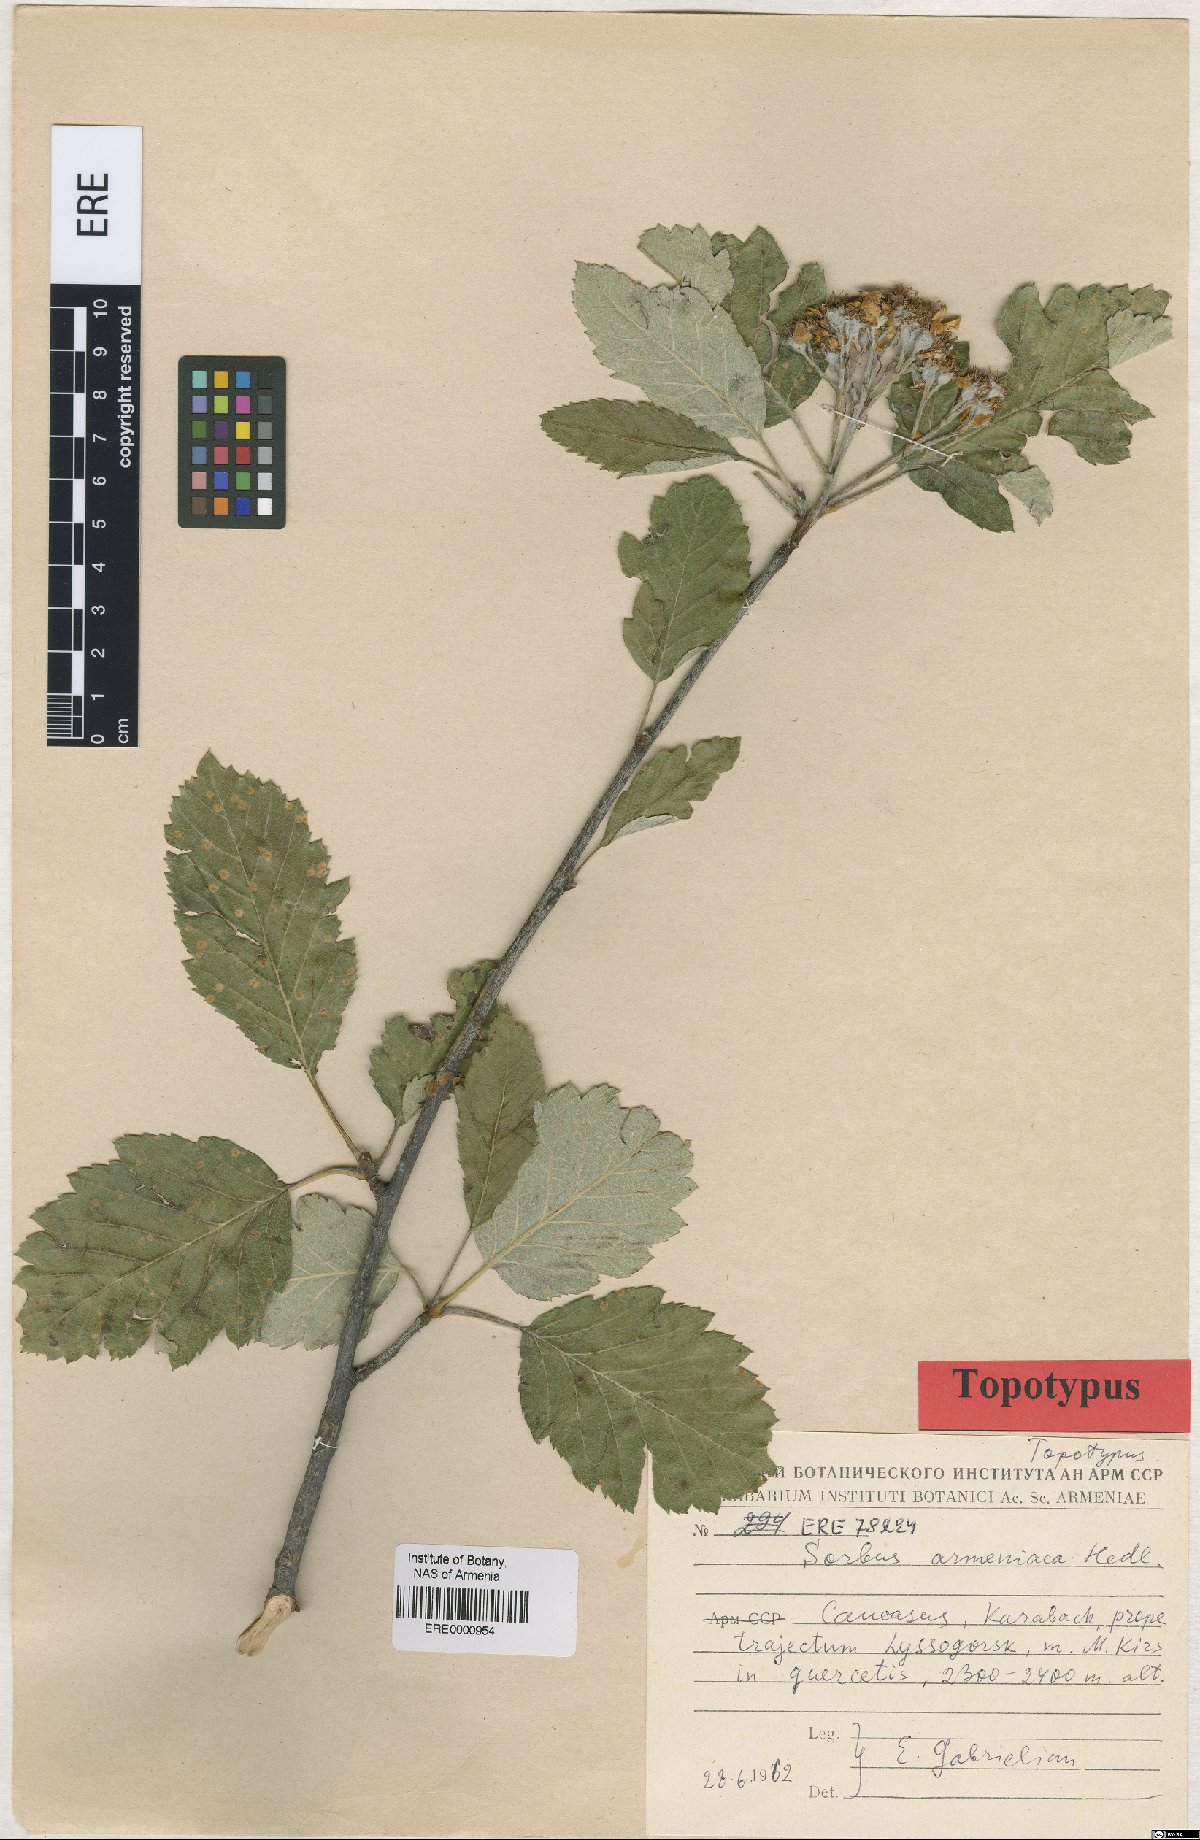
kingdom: Plantae
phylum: Tracheophyta
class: Magnoliopsida
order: Rosales
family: Rosaceae
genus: Hedlundia
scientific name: Hedlundia armeniaca
